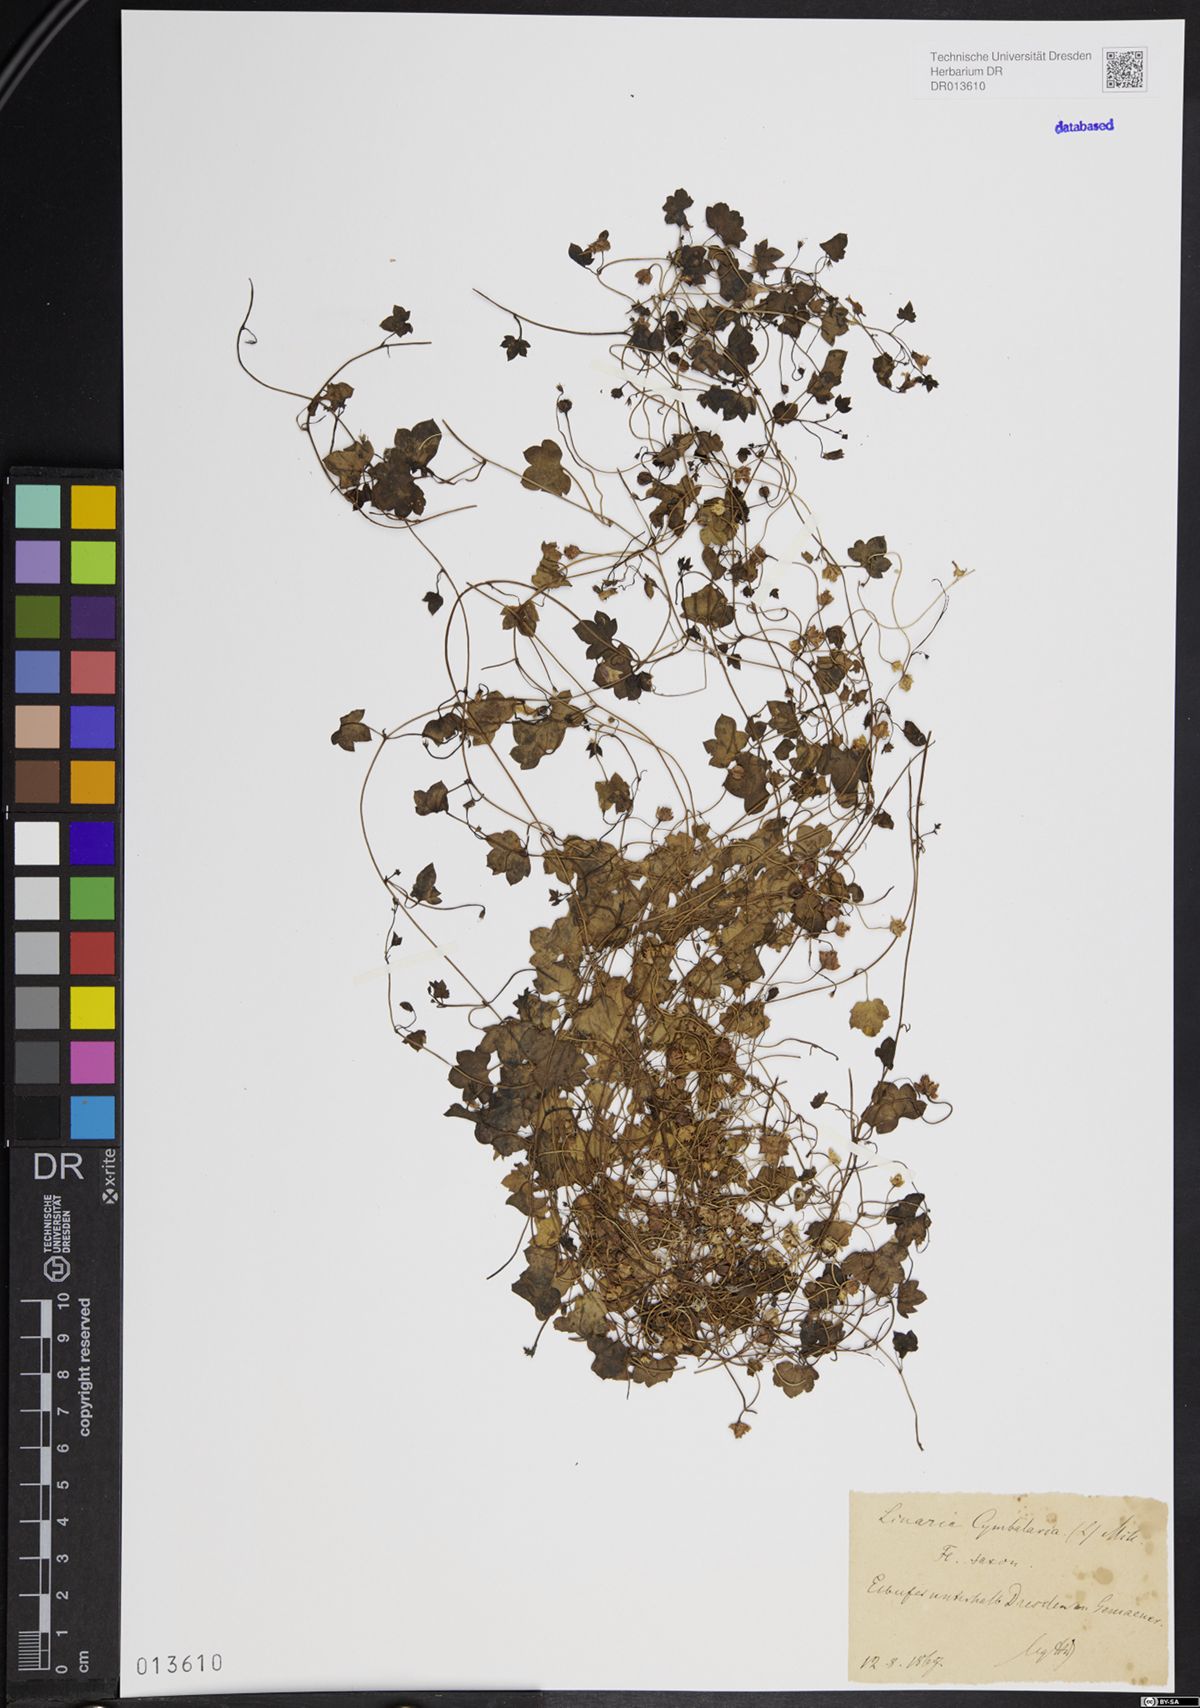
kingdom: Plantae
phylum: Tracheophyta
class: Magnoliopsida
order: Lamiales
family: Plantaginaceae
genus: Cymbalaria
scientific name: Cymbalaria muralis
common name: Ivy-leaved toadflax
